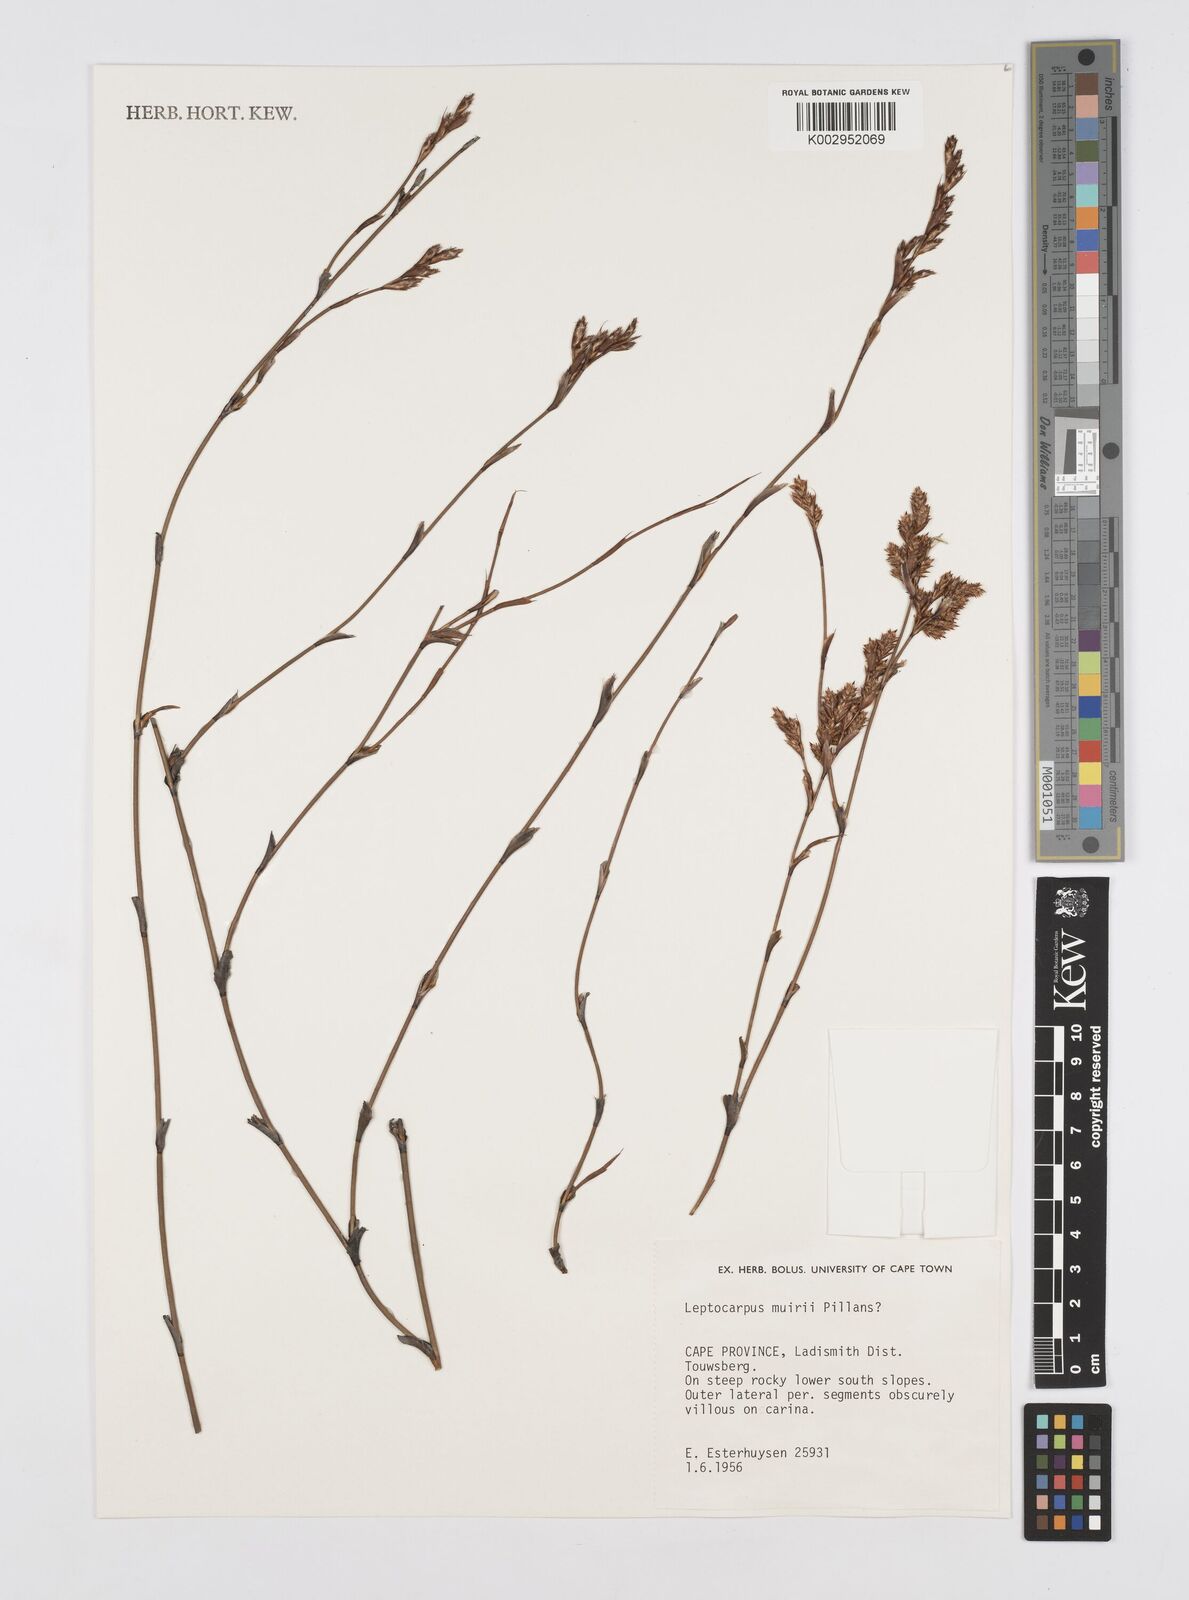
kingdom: Plantae
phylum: Tracheophyta
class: Liliopsida
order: Poales
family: Restionaceae
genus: Restio
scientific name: Restio muirii
